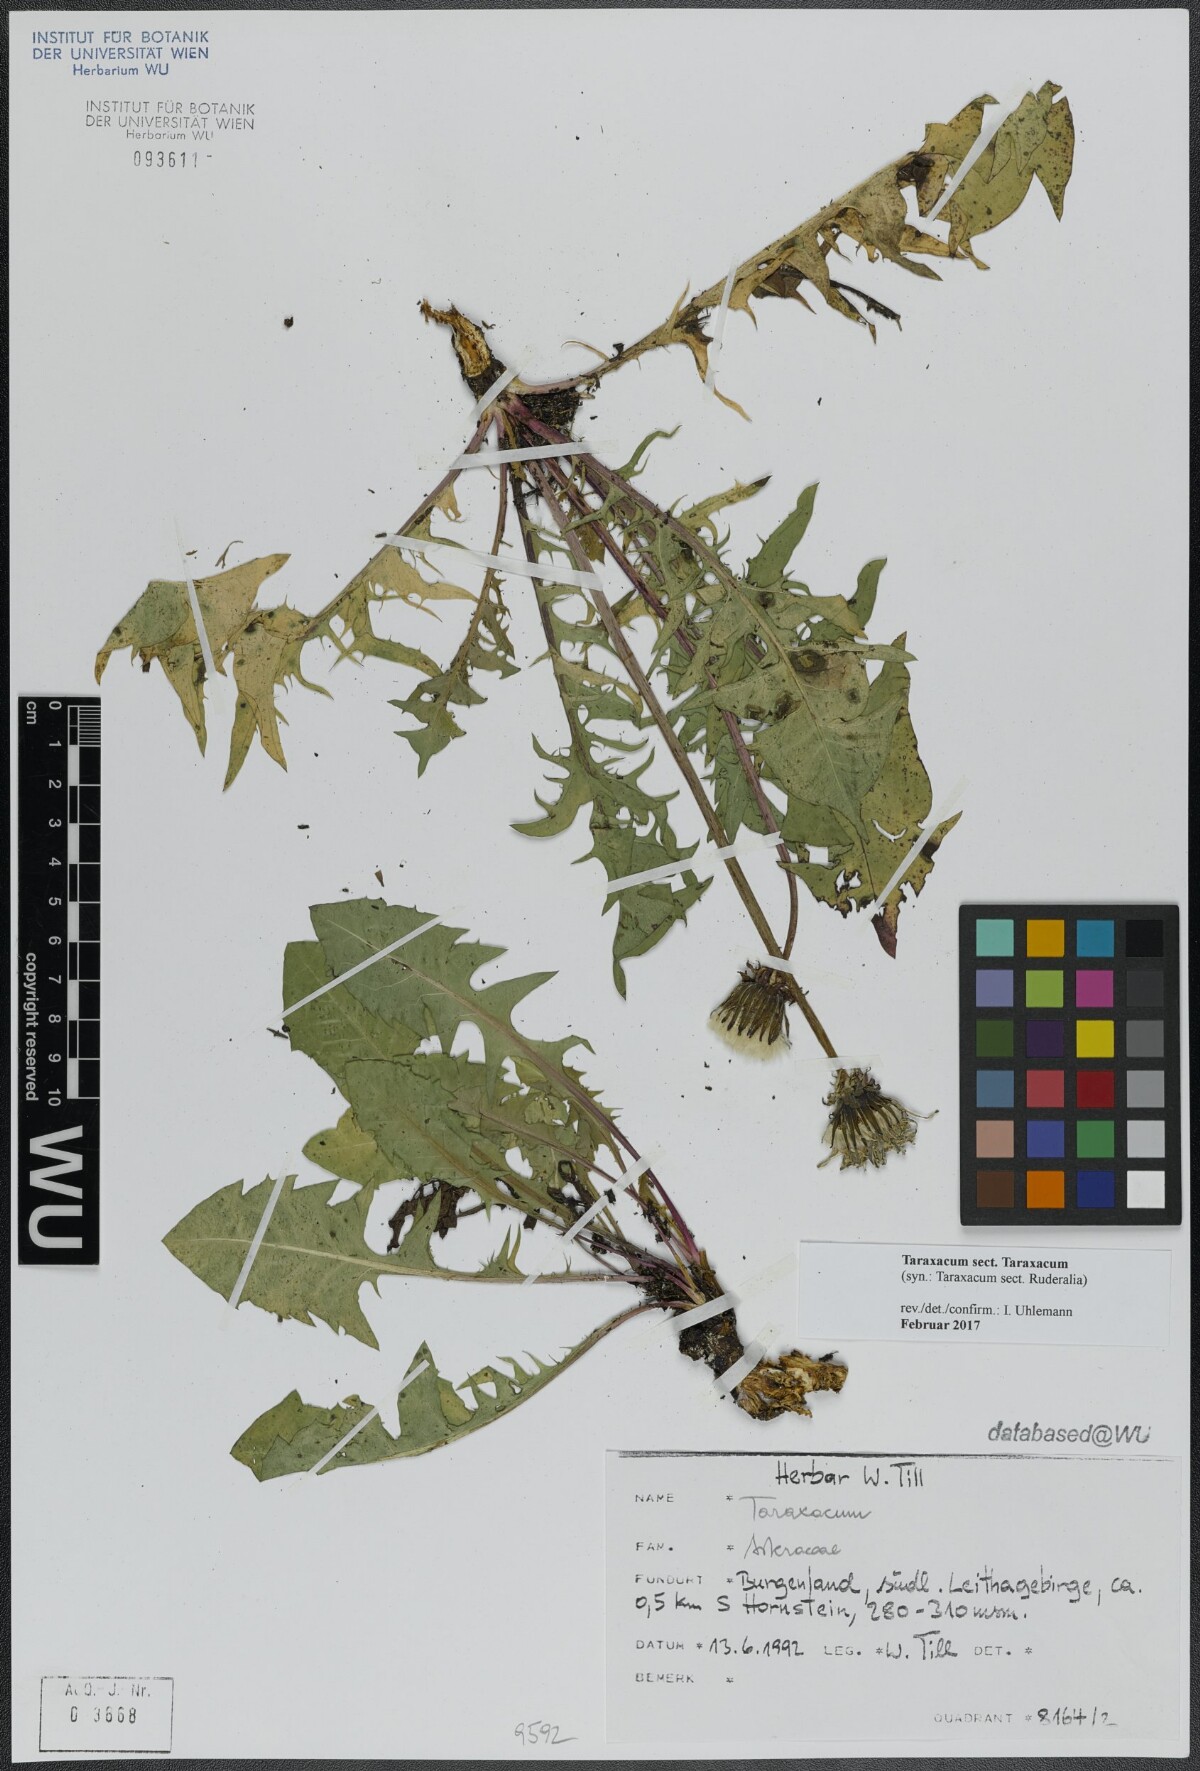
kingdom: Plantae
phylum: Tracheophyta
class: Magnoliopsida
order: Asterales
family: Asteraceae
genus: Taraxacum
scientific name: Taraxacum
